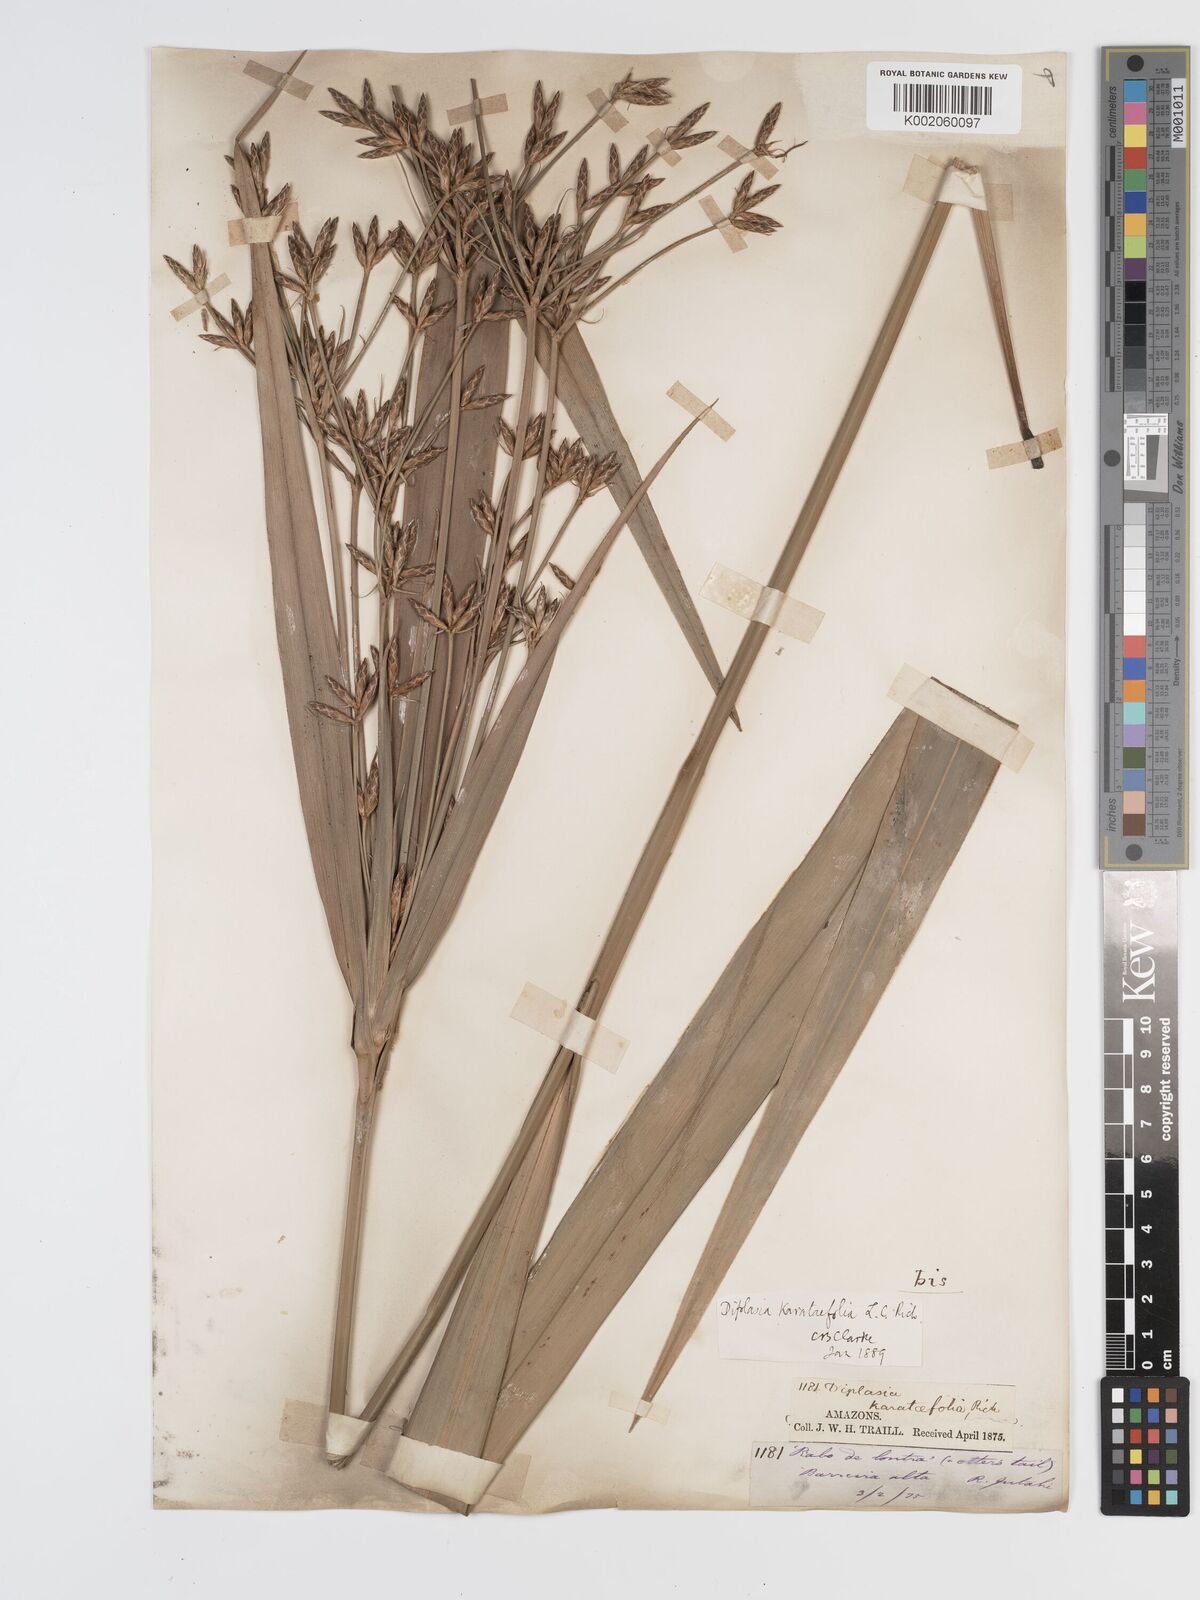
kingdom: Plantae
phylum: Tracheophyta
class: Liliopsida
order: Poales
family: Cyperaceae
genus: Diplasia
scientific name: Diplasia karatifolia
